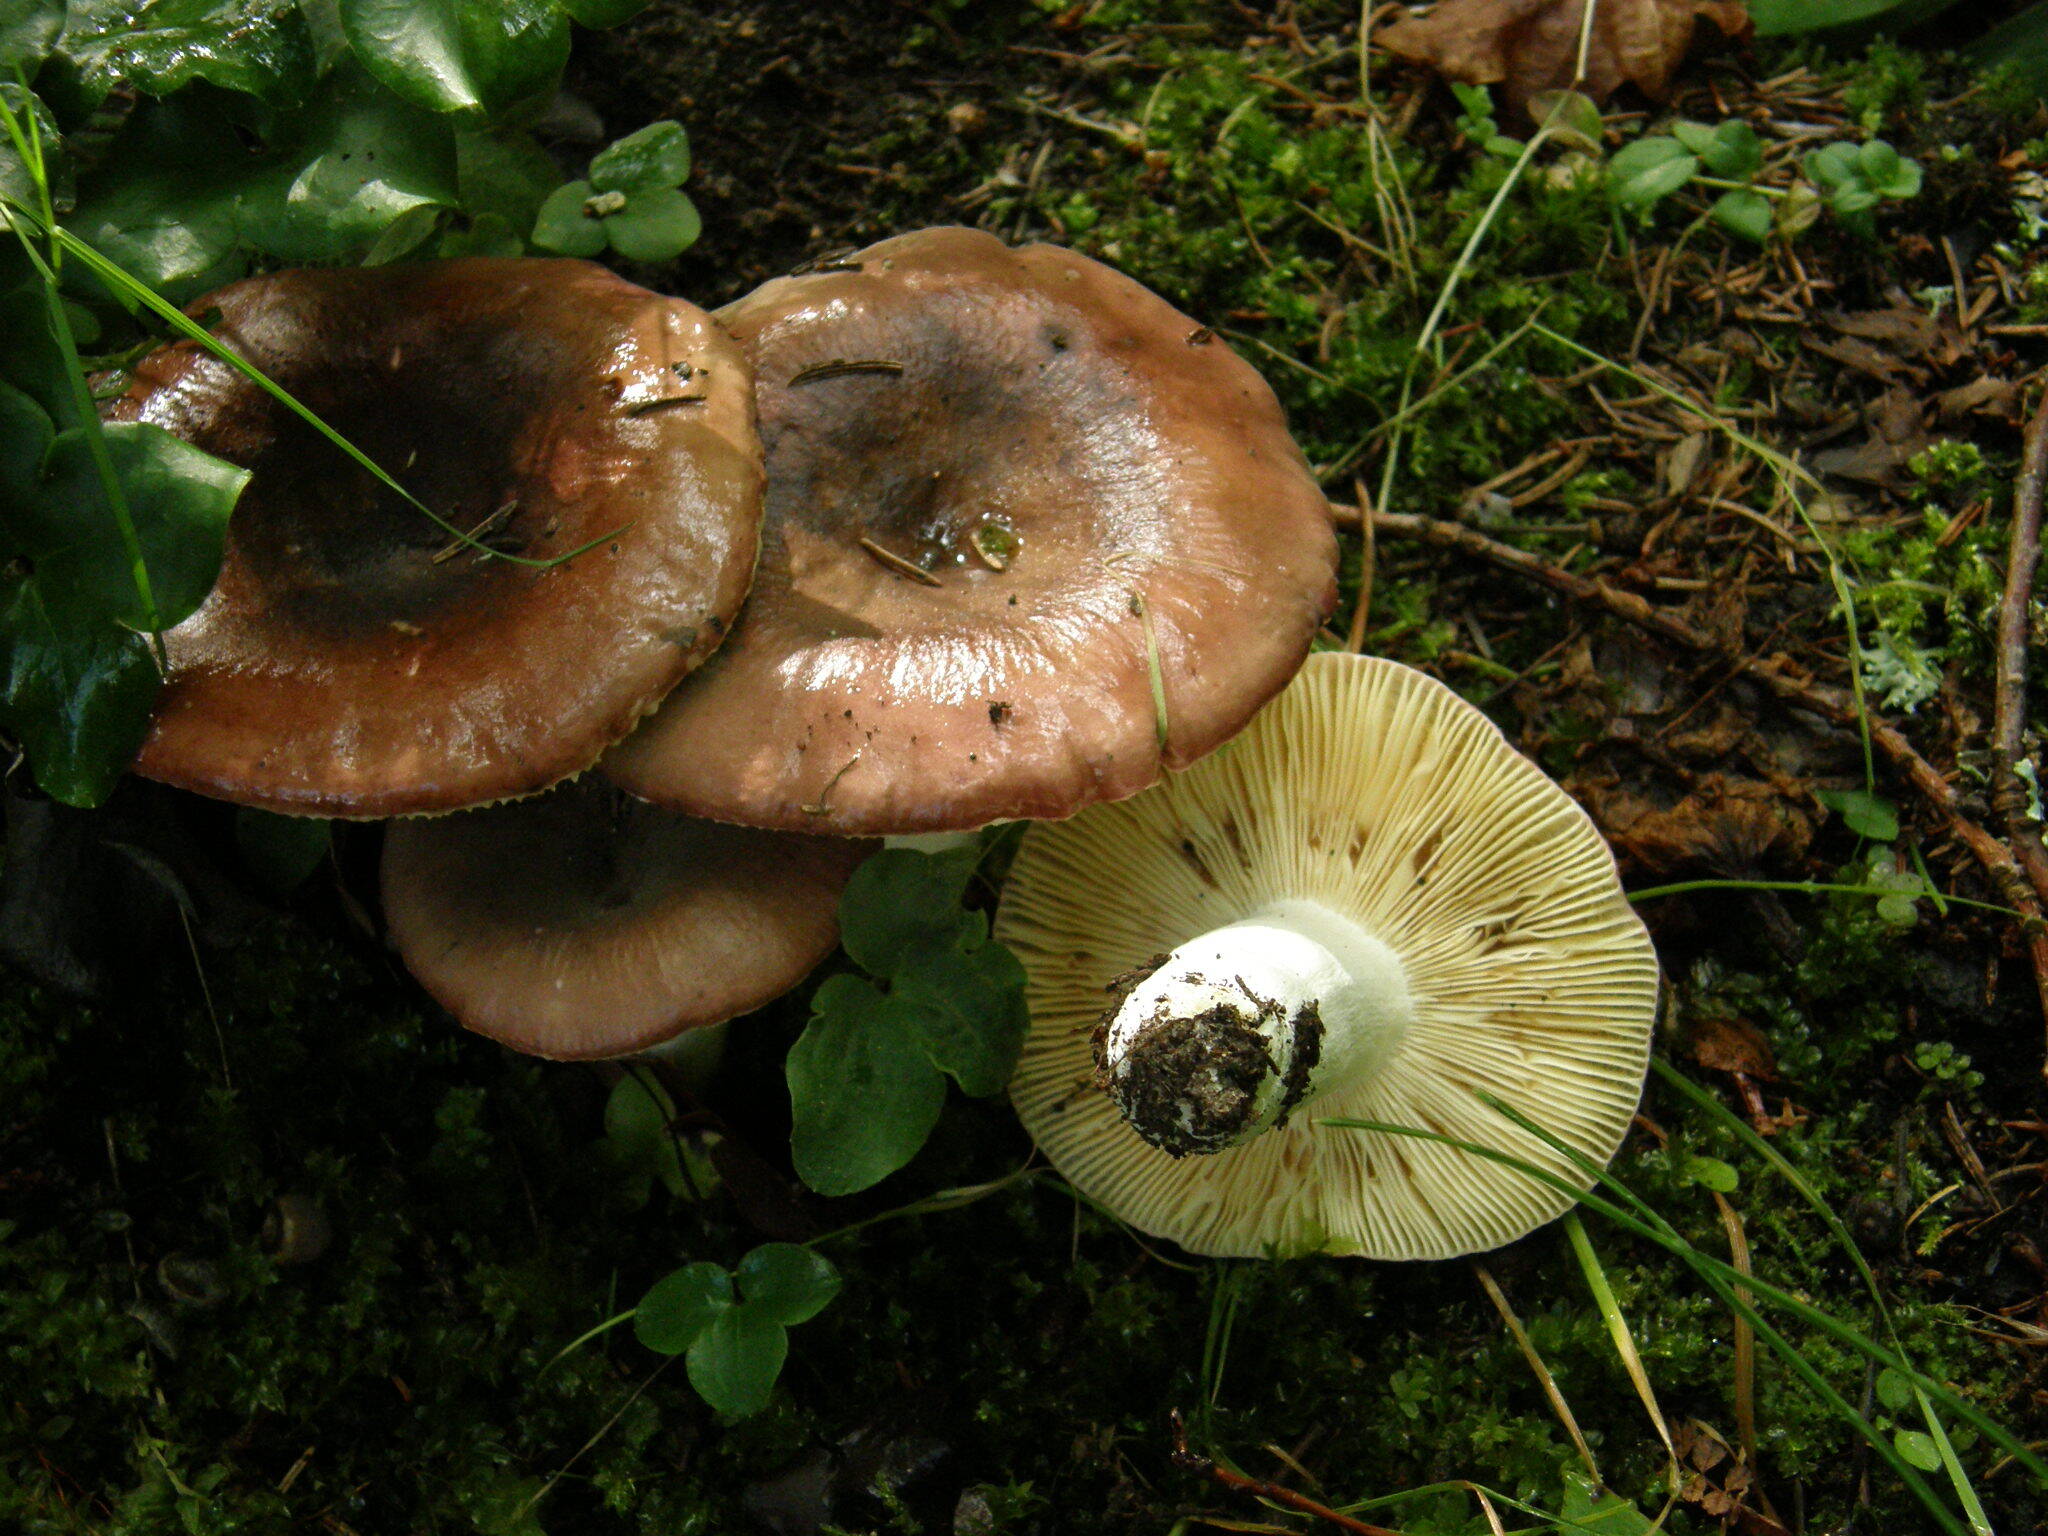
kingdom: Fungi
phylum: Basidiomycota
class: Agaricomycetes
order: Russulales
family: Russulaceae
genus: Russula
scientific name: Russula integra
